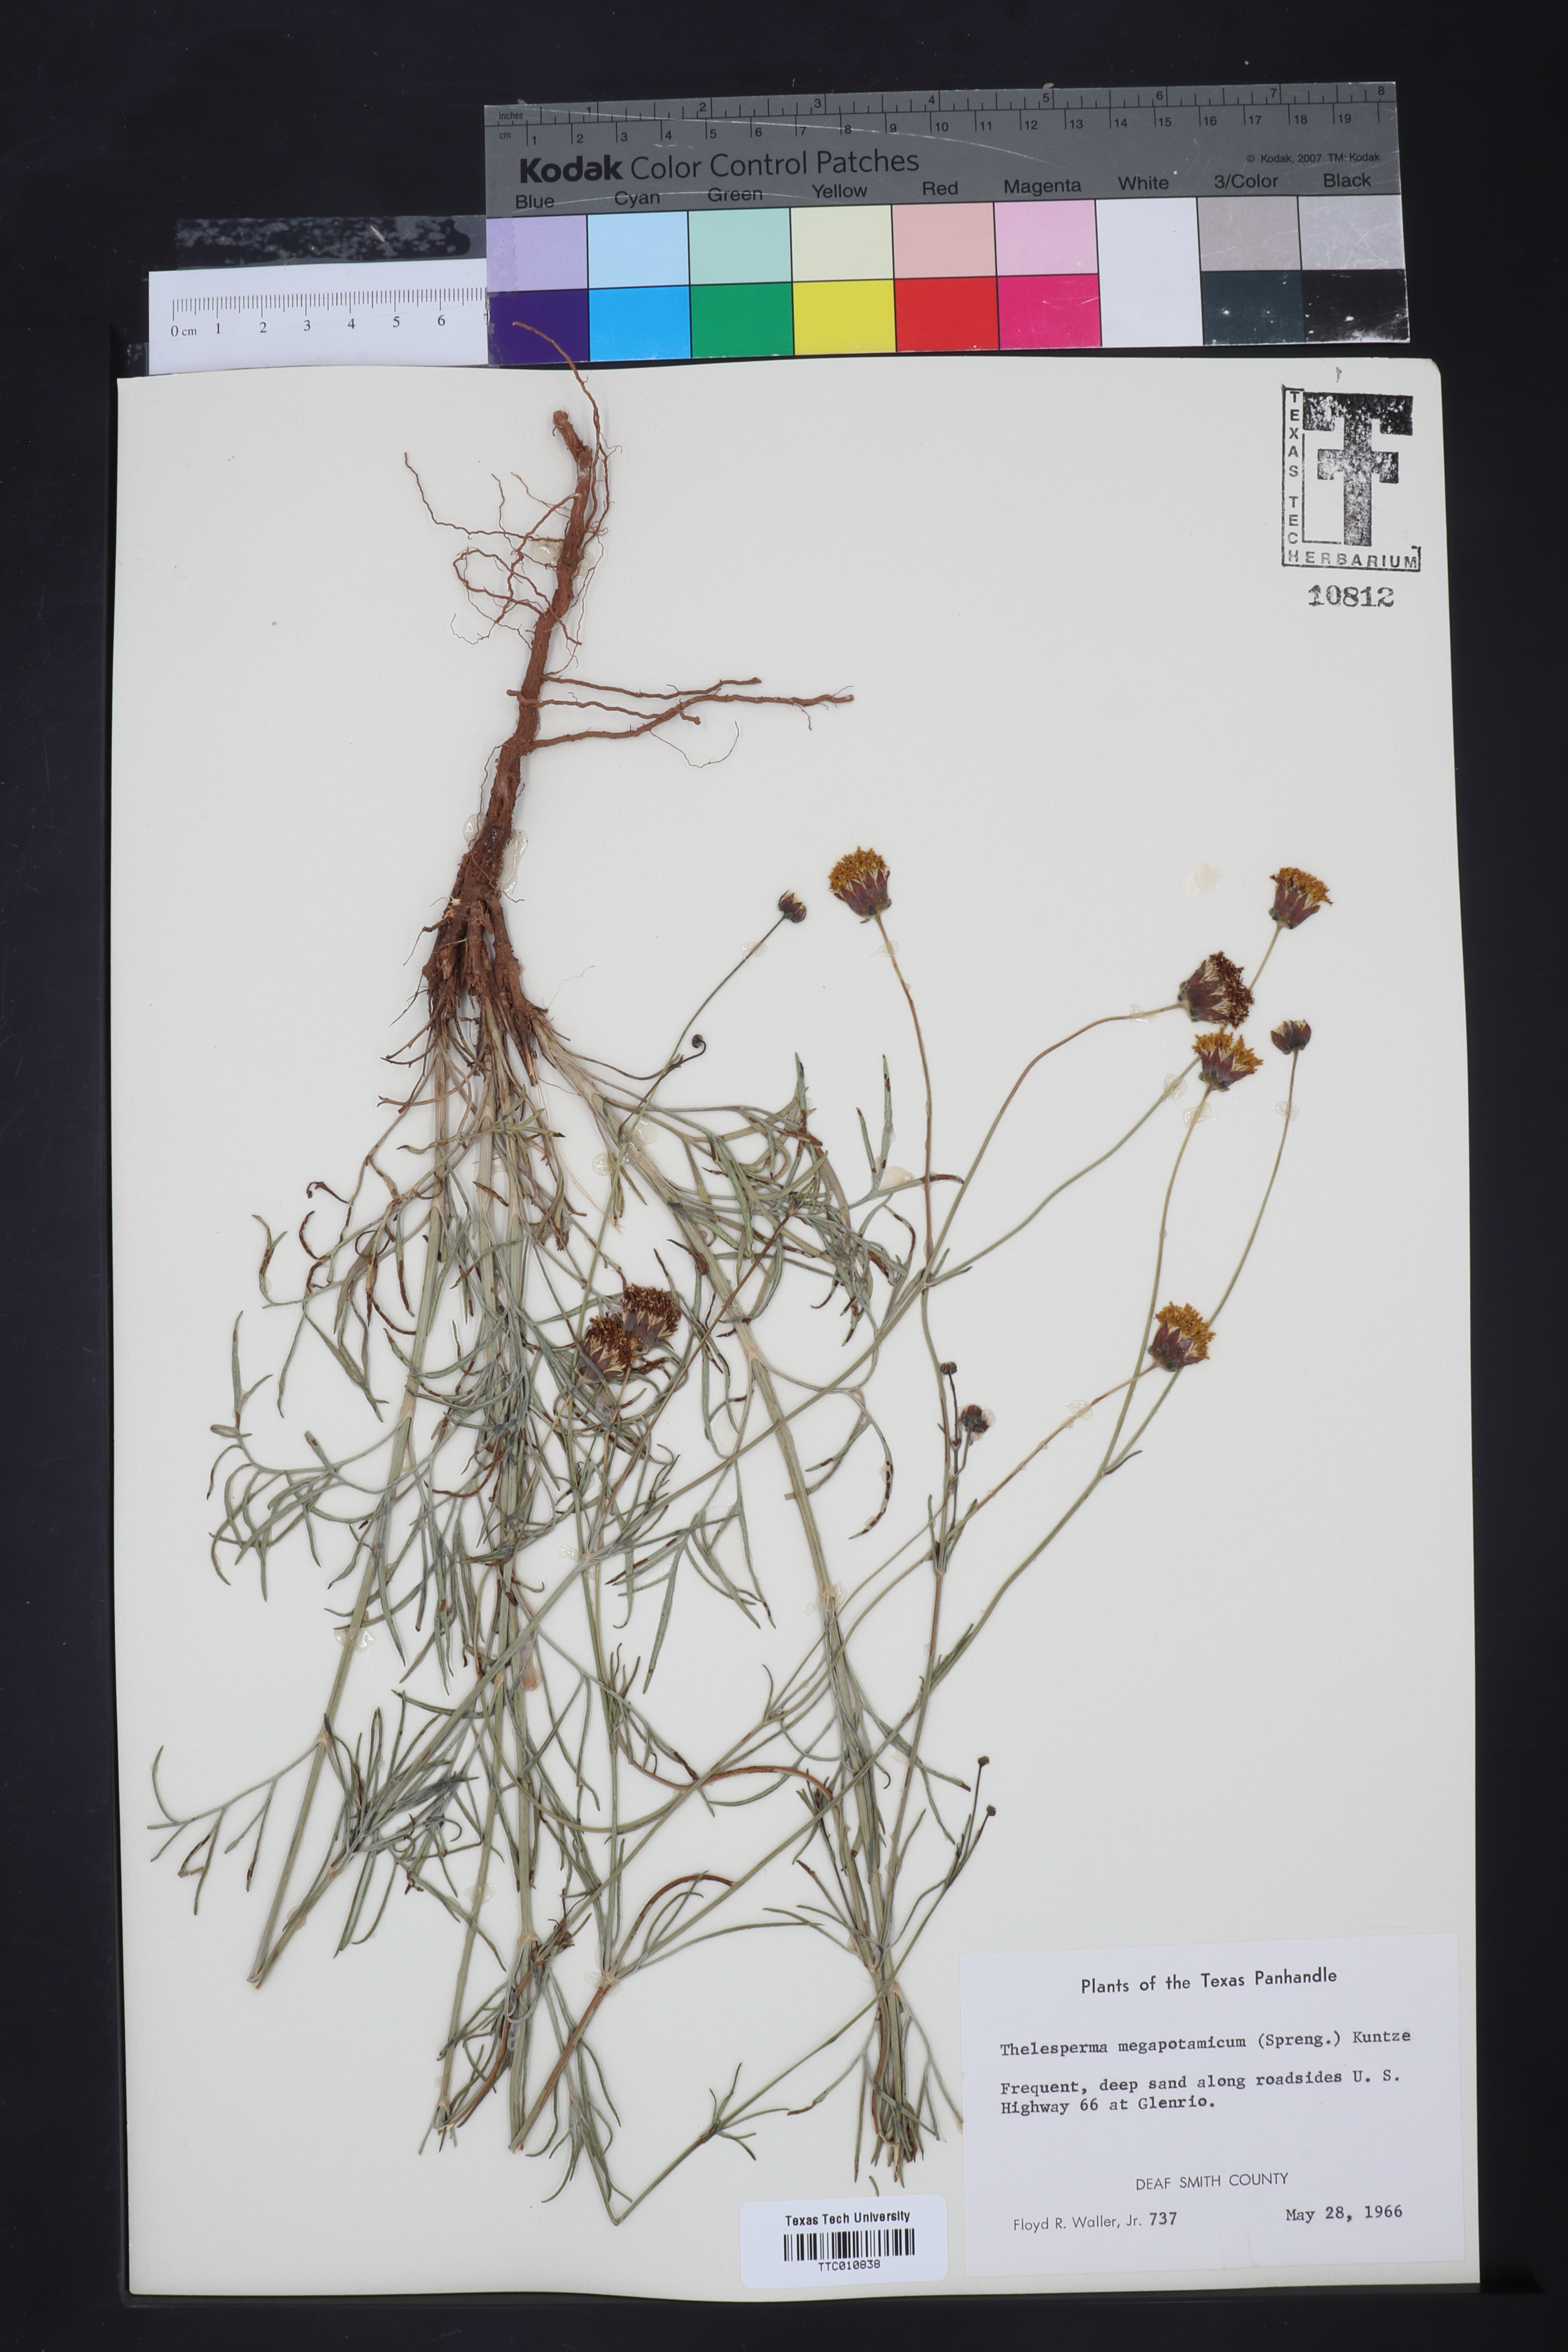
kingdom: Plantae
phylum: Tracheophyta
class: Magnoliopsida
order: Asterales
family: Asteraceae
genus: Thelesperma
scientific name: Thelesperma megapotamicum
